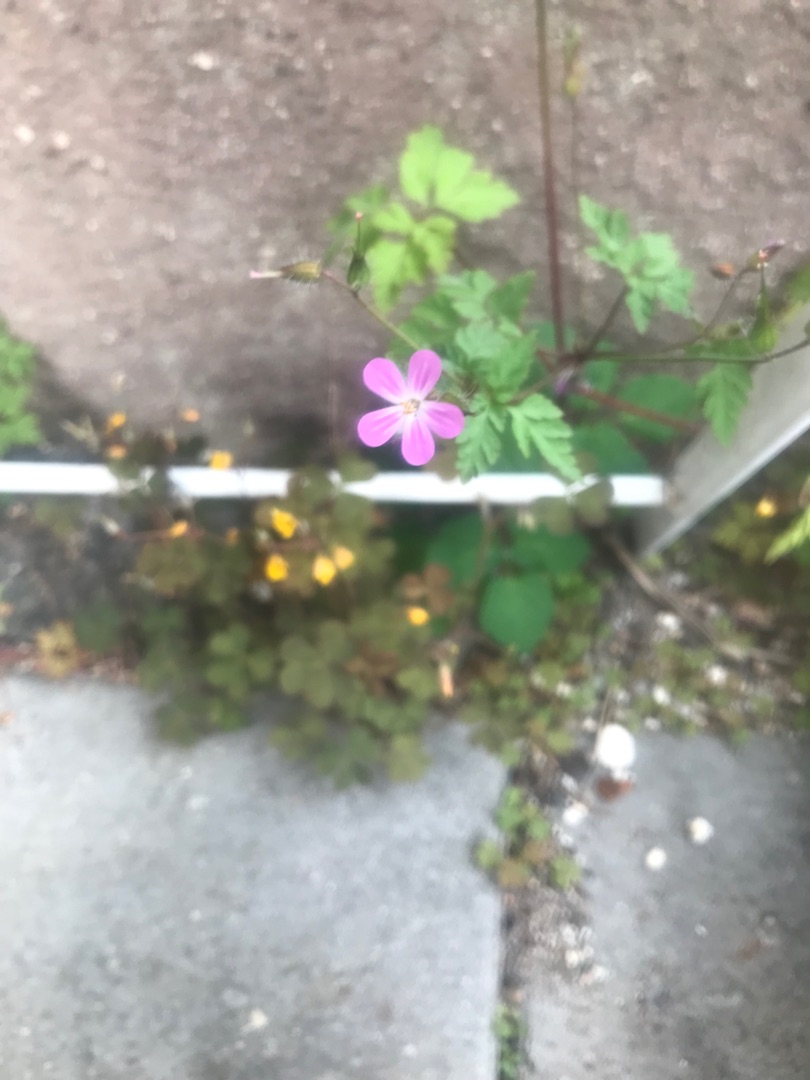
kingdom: Plantae
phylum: Tracheophyta
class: Magnoliopsida
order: Geraniales
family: Geraniaceae
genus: Geranium
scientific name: Geranium robertianum
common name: Stinkende storkenæb
